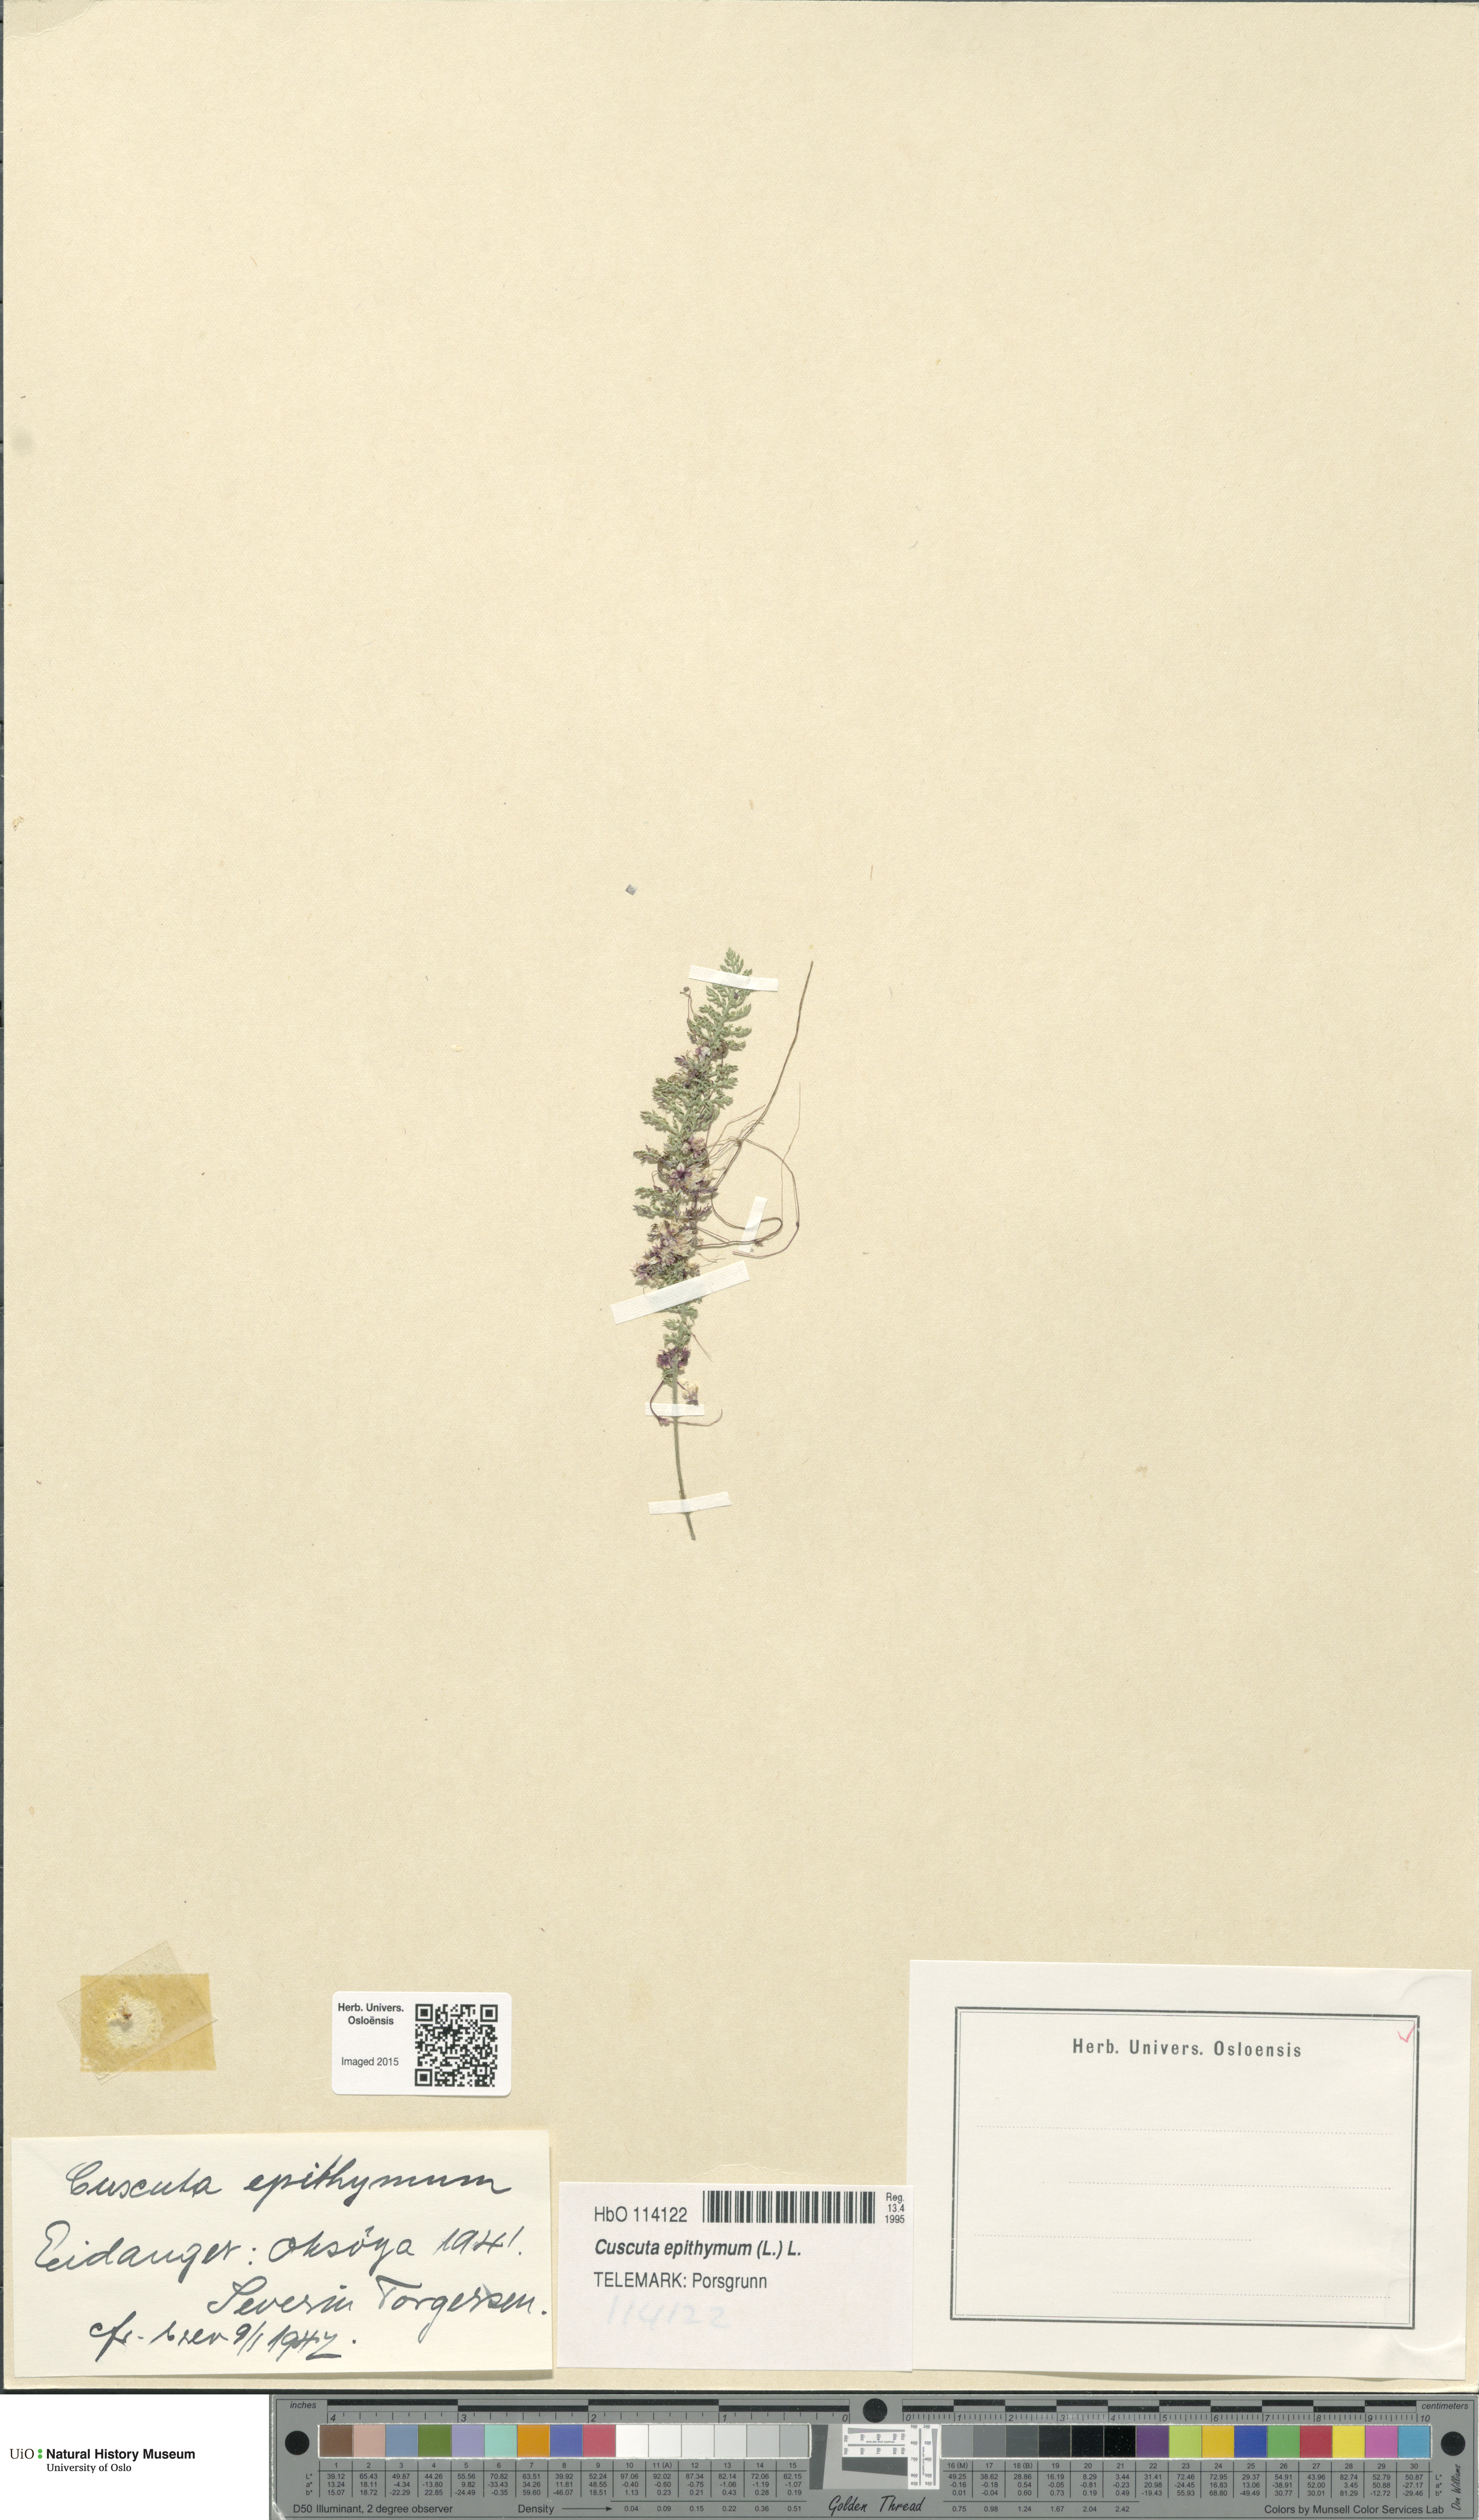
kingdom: Plantae
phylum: Tracheophyta
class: Magnoliopsida
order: Solanales
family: Convolvulaceae
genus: Cuscuta
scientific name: Cuscuta epithymum
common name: Clover dodder
